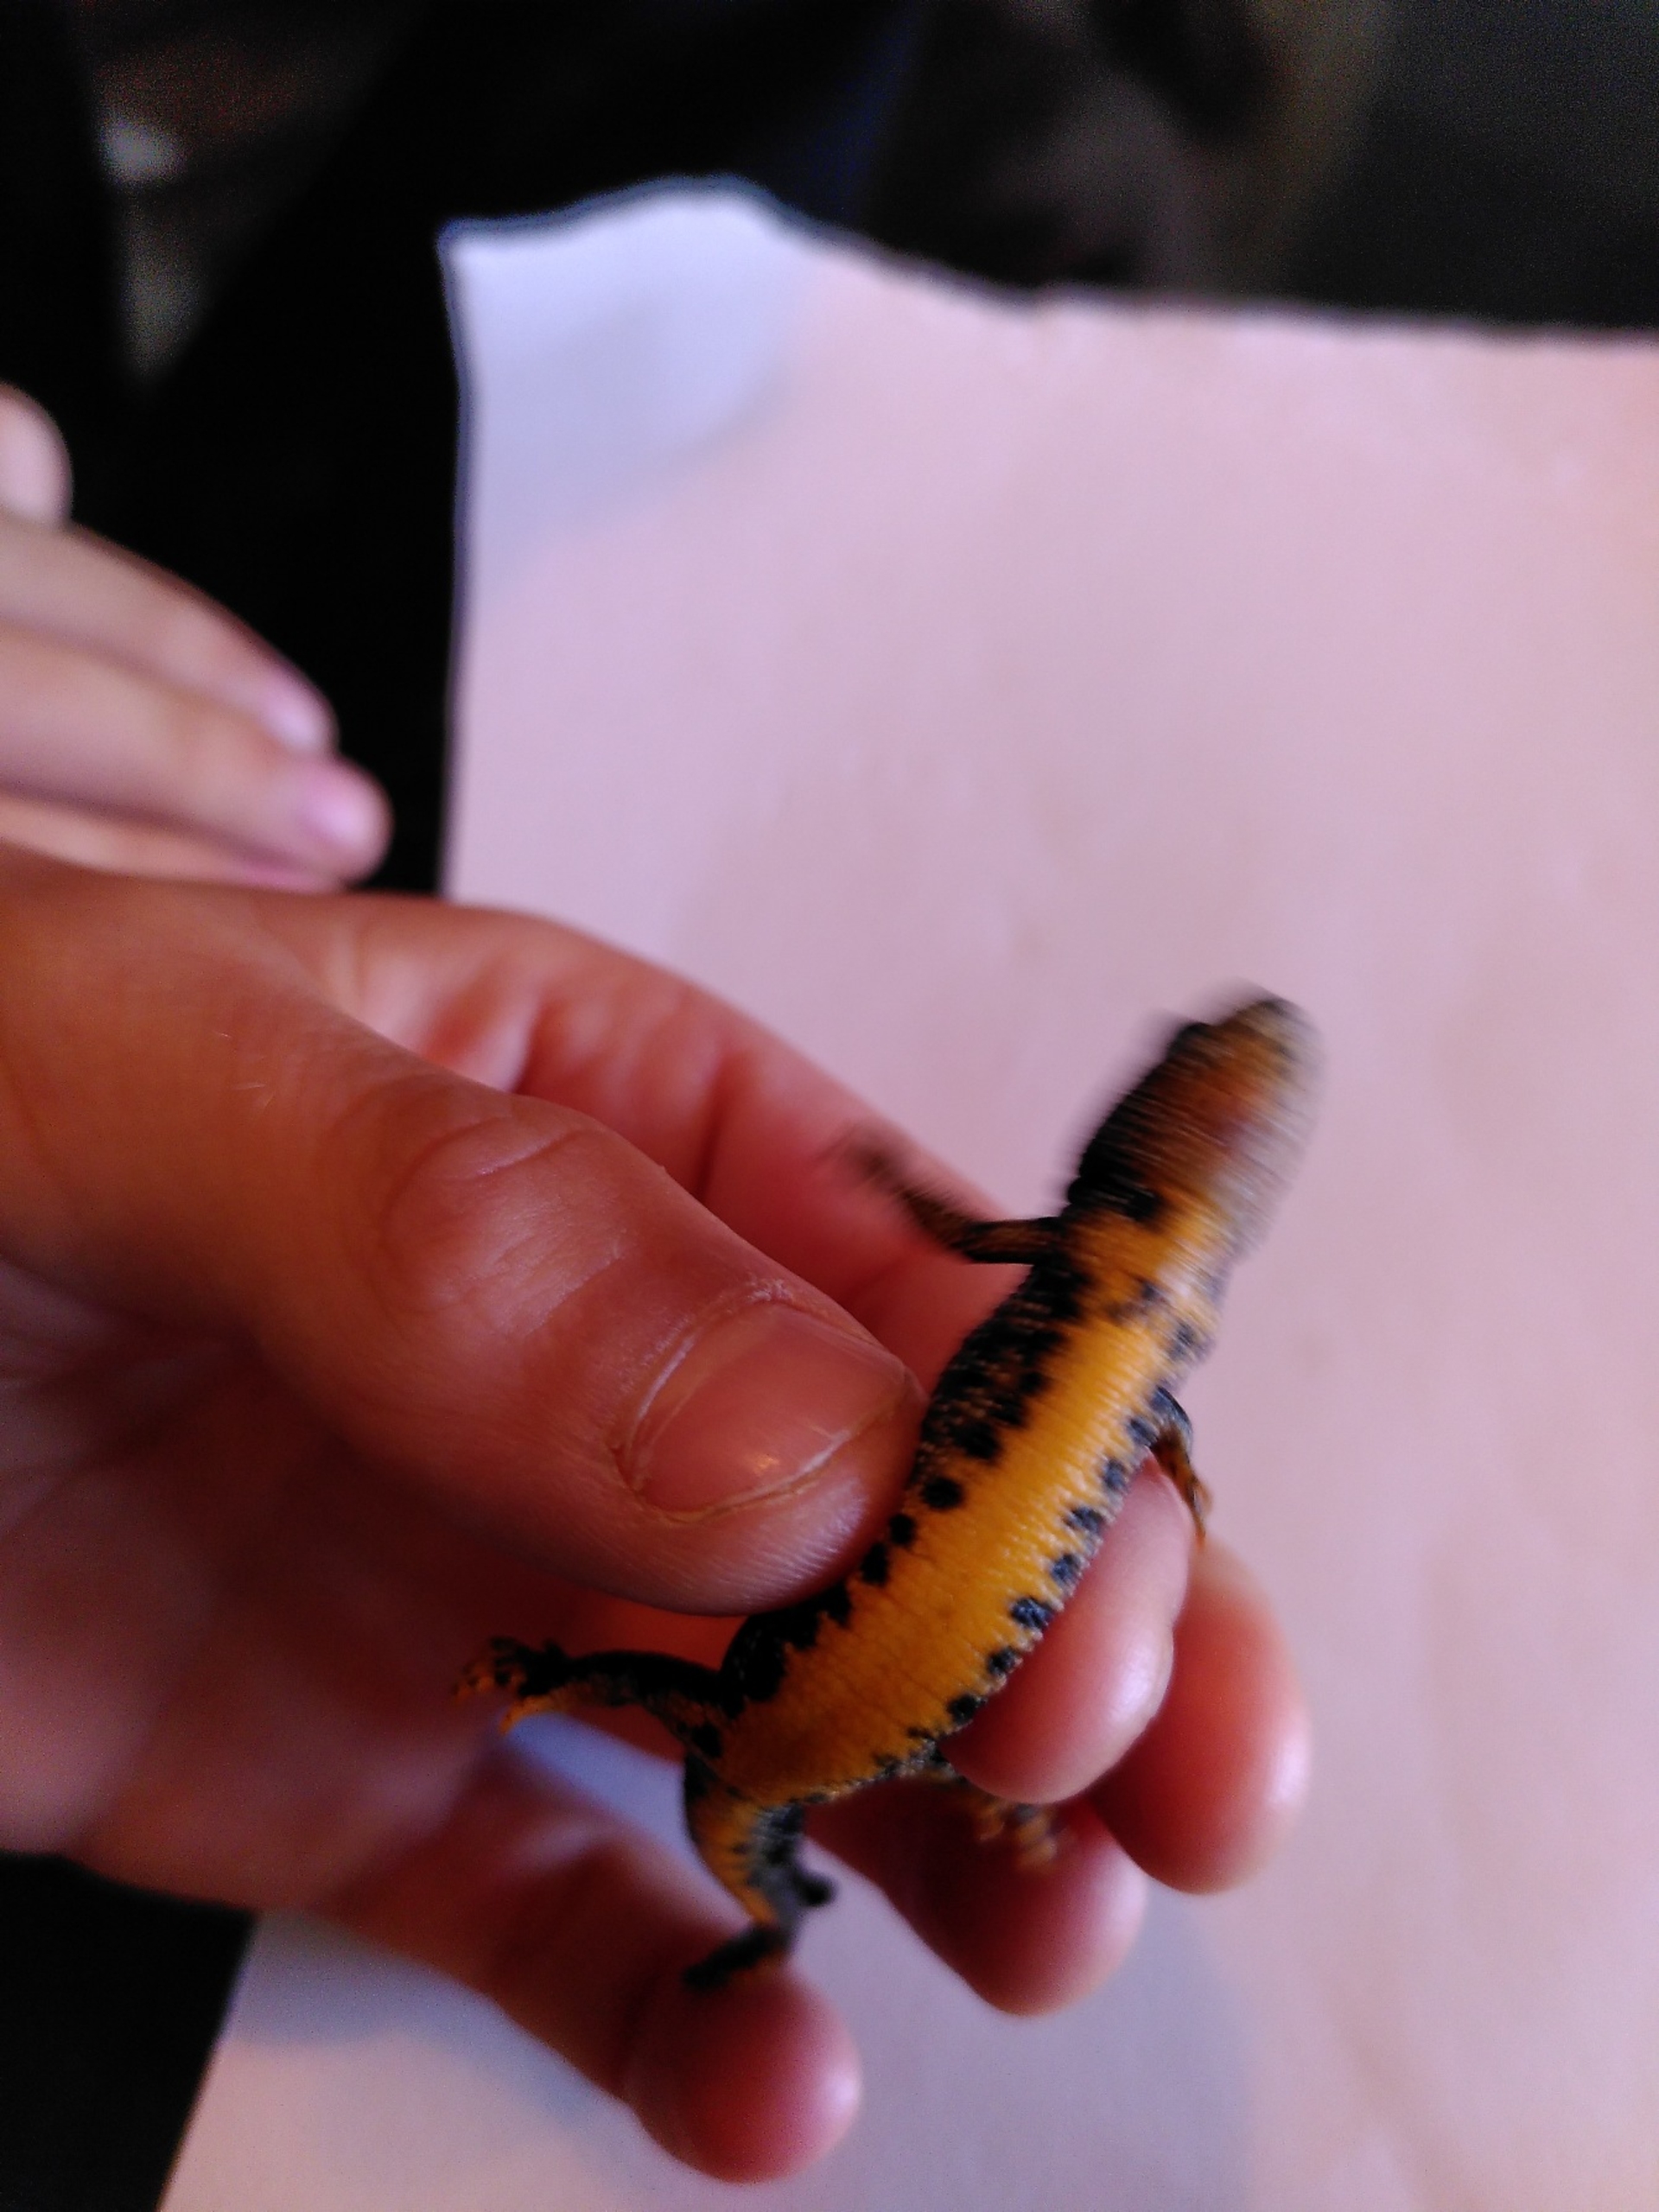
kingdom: Animalia
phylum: Chordata
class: Amphibia
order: Caudata
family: Salamandridae
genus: Triturus
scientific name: Triturus cristatus
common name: Stor vandsalamander
